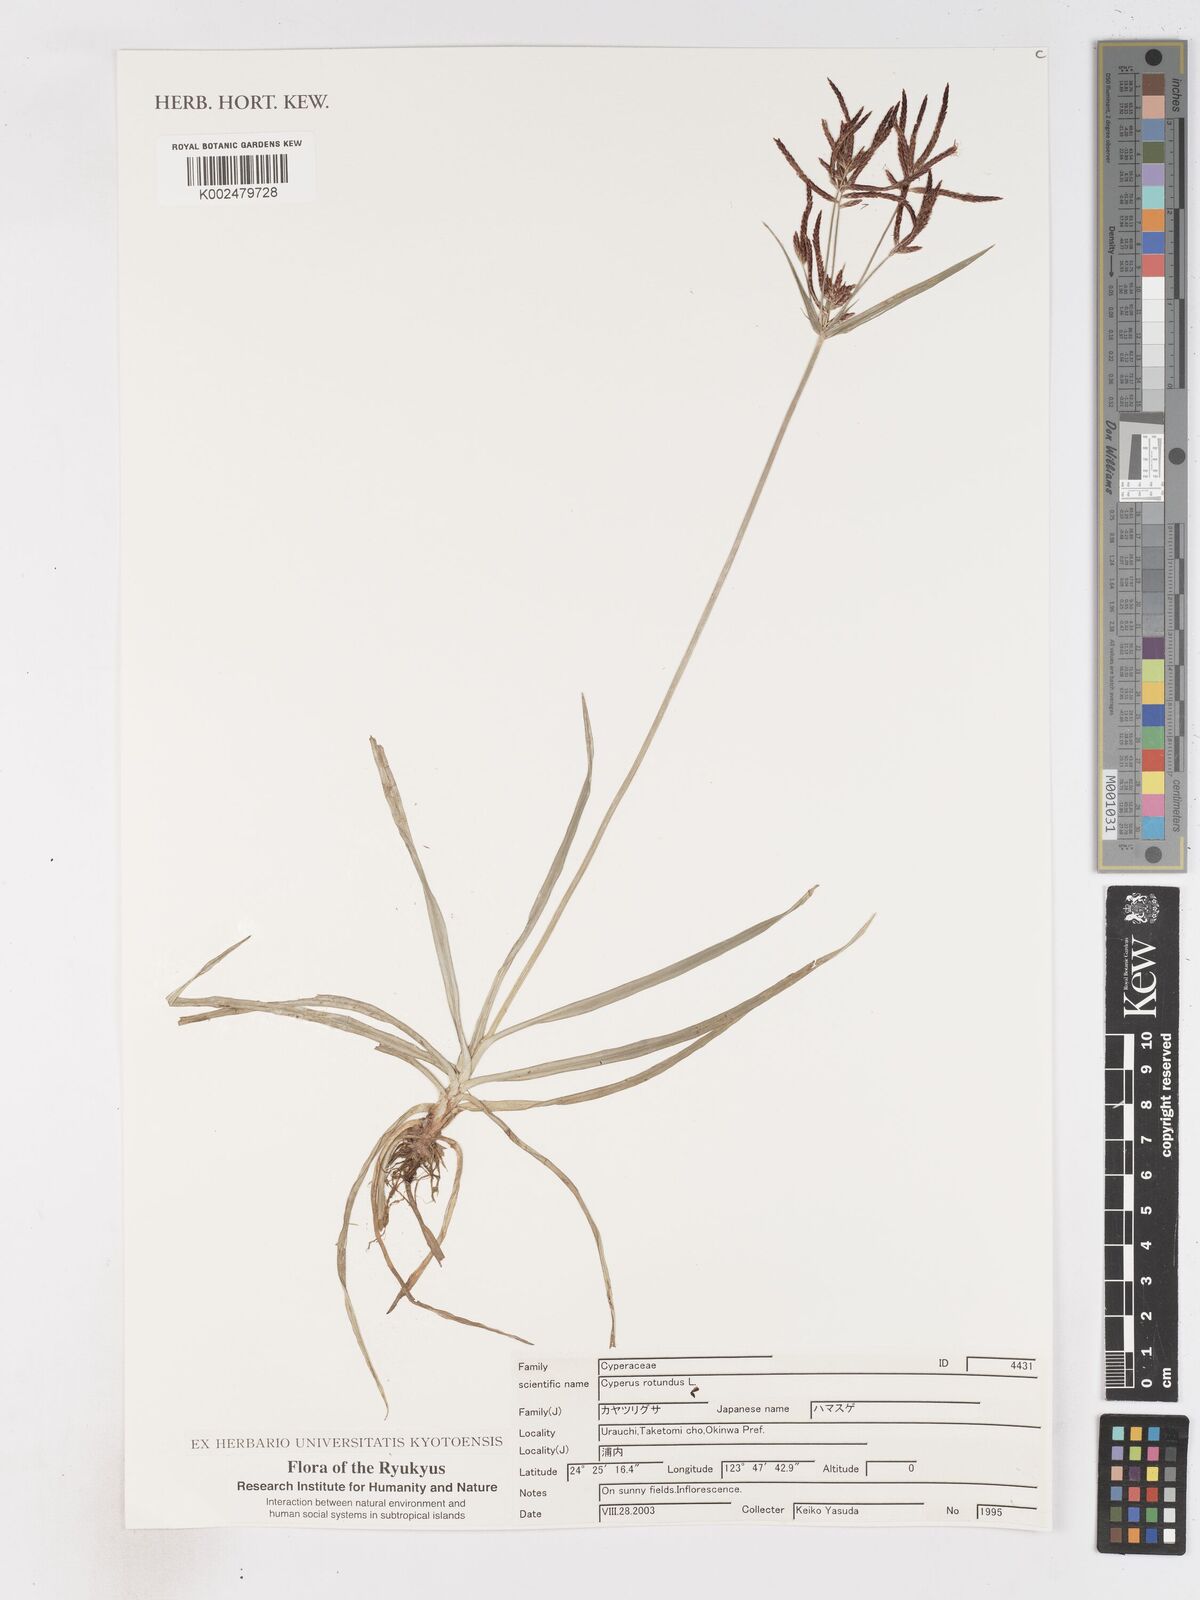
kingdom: Plantae
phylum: Tracheophyta
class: Liliopsida
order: Poales
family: Cyperaceae
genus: Cyperus
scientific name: Cyperus rotundus
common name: Nutgrass
